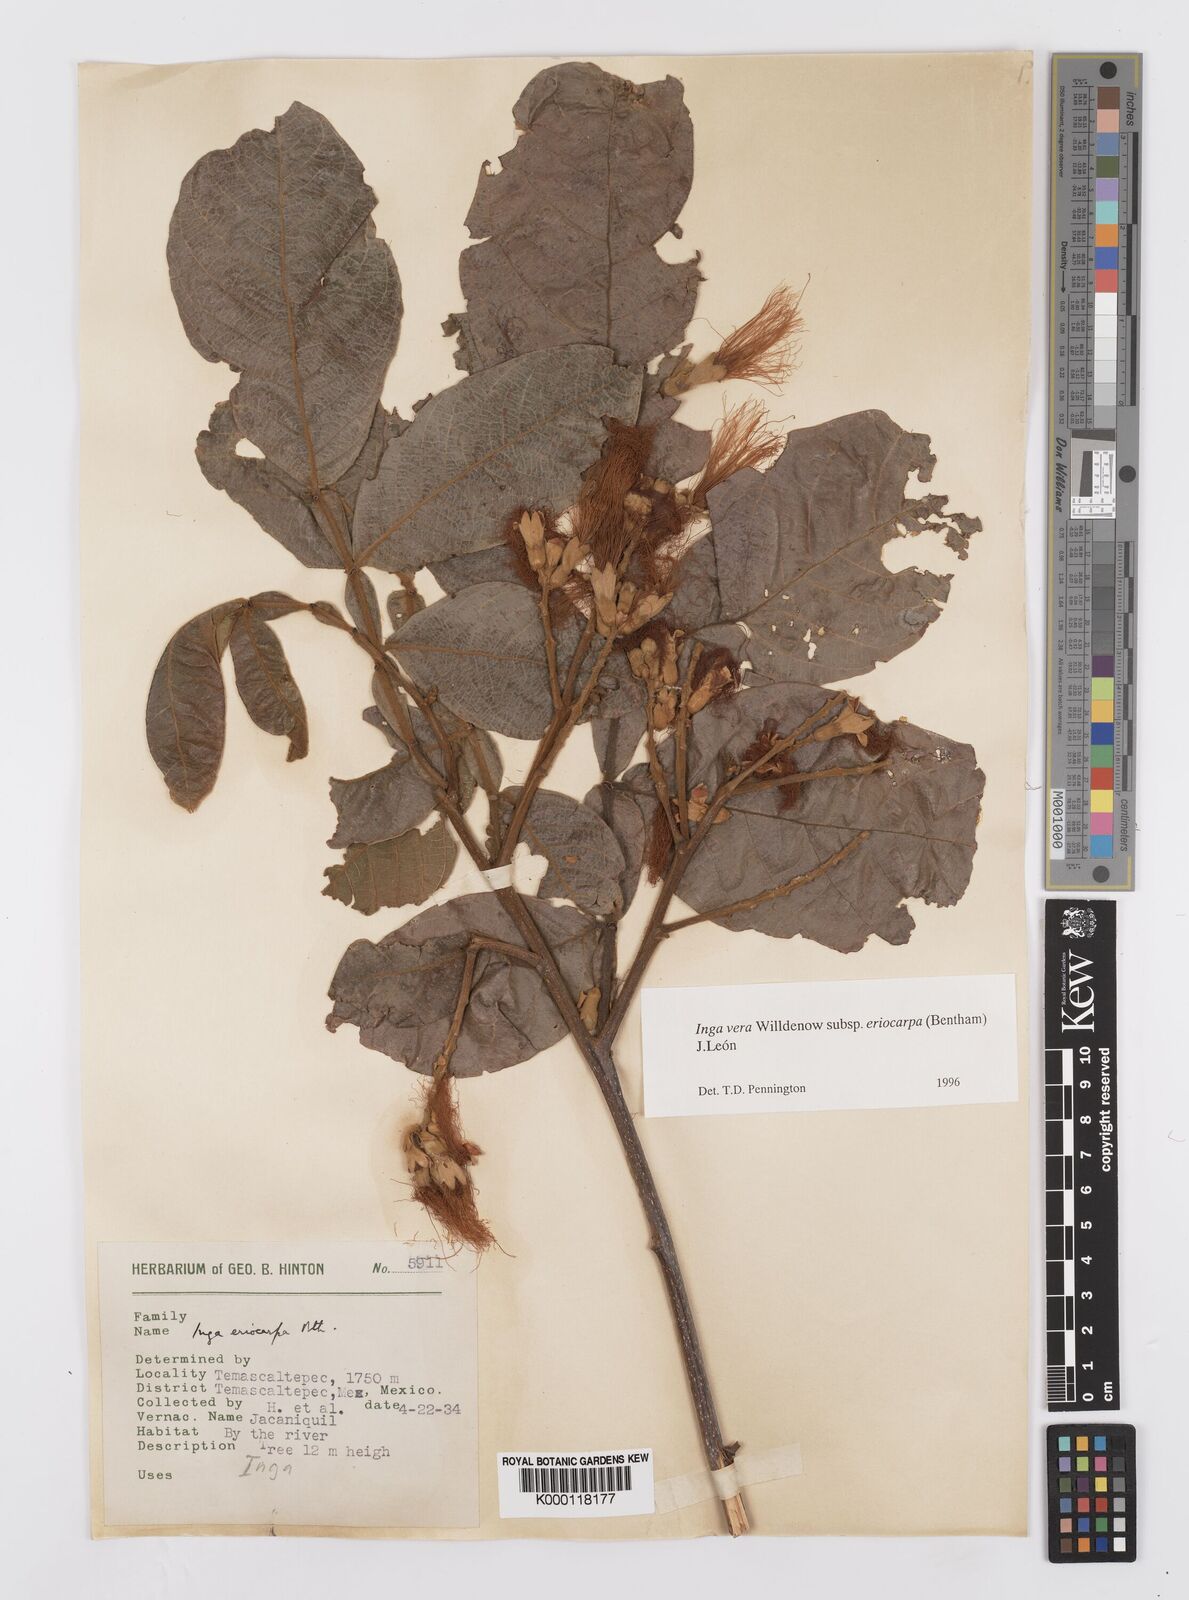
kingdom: Plantae
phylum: Tracheophyta
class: Magnoliopsida
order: Fabales
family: Fabaceae
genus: Inga
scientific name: Inga vera
